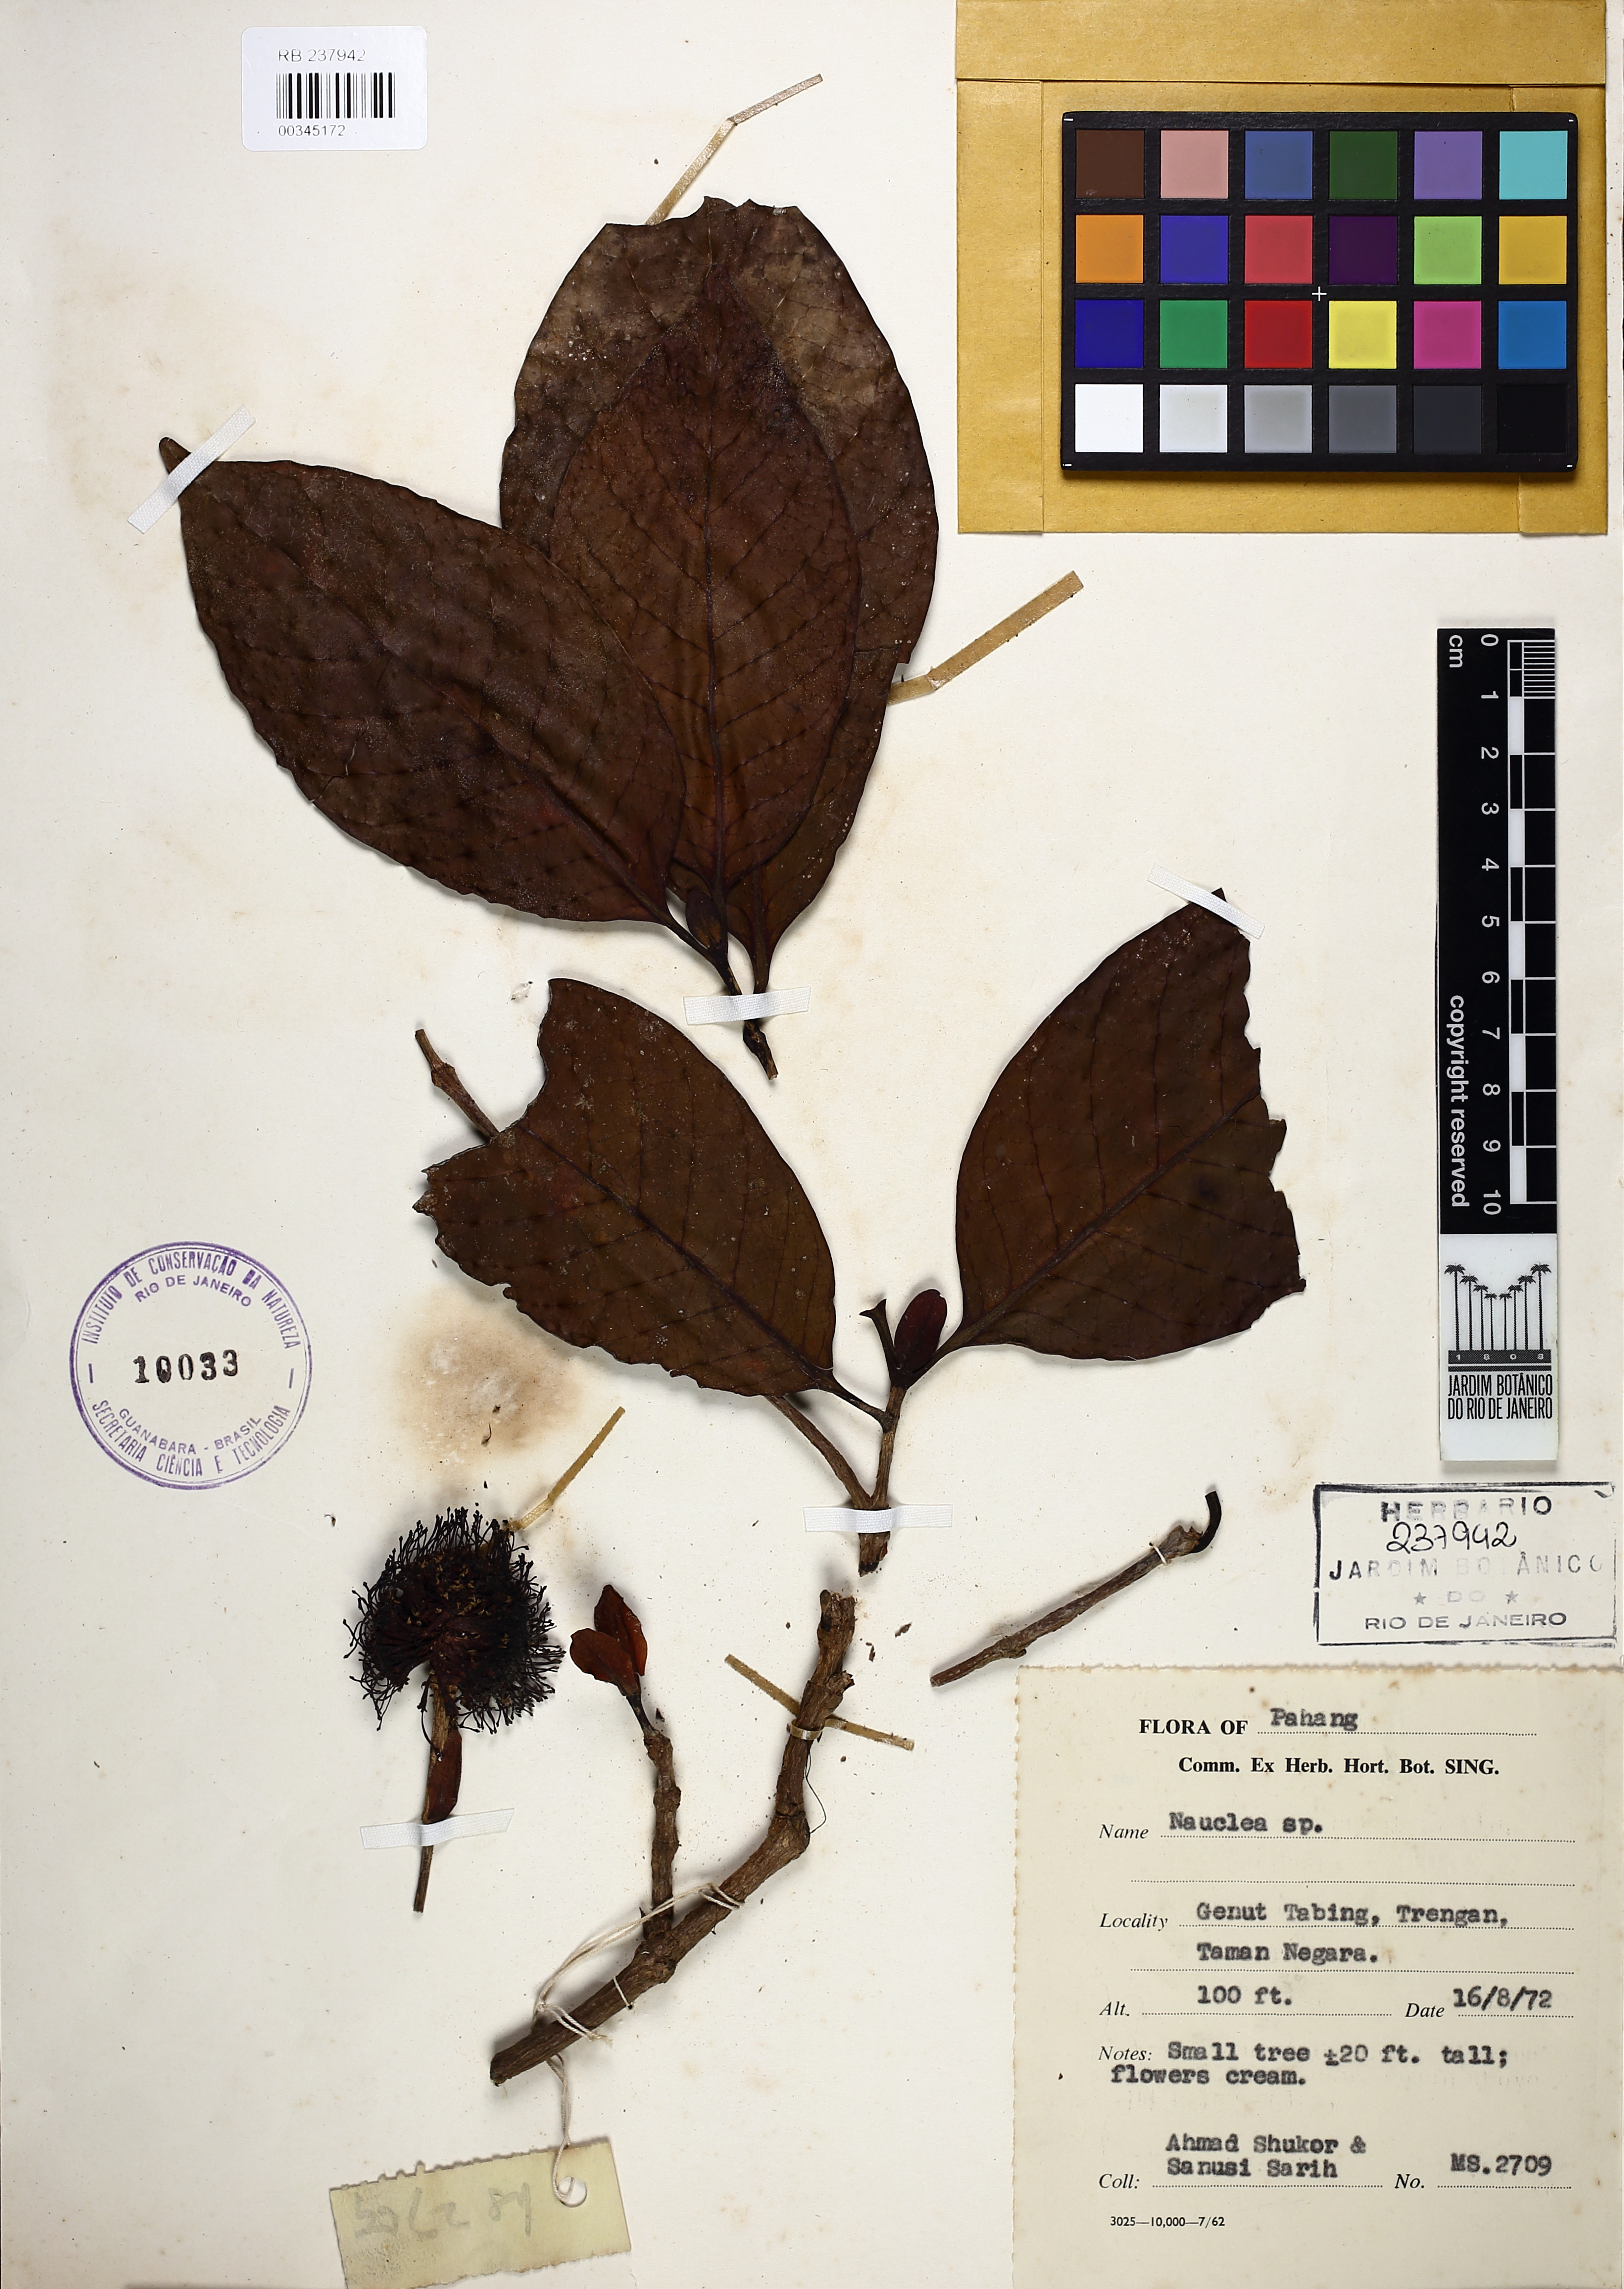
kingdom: Plantae
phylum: Tracheophyta
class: Magnoliopsida
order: Gentianales
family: Rubiaceae
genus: Nauclea
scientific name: Nauclea
